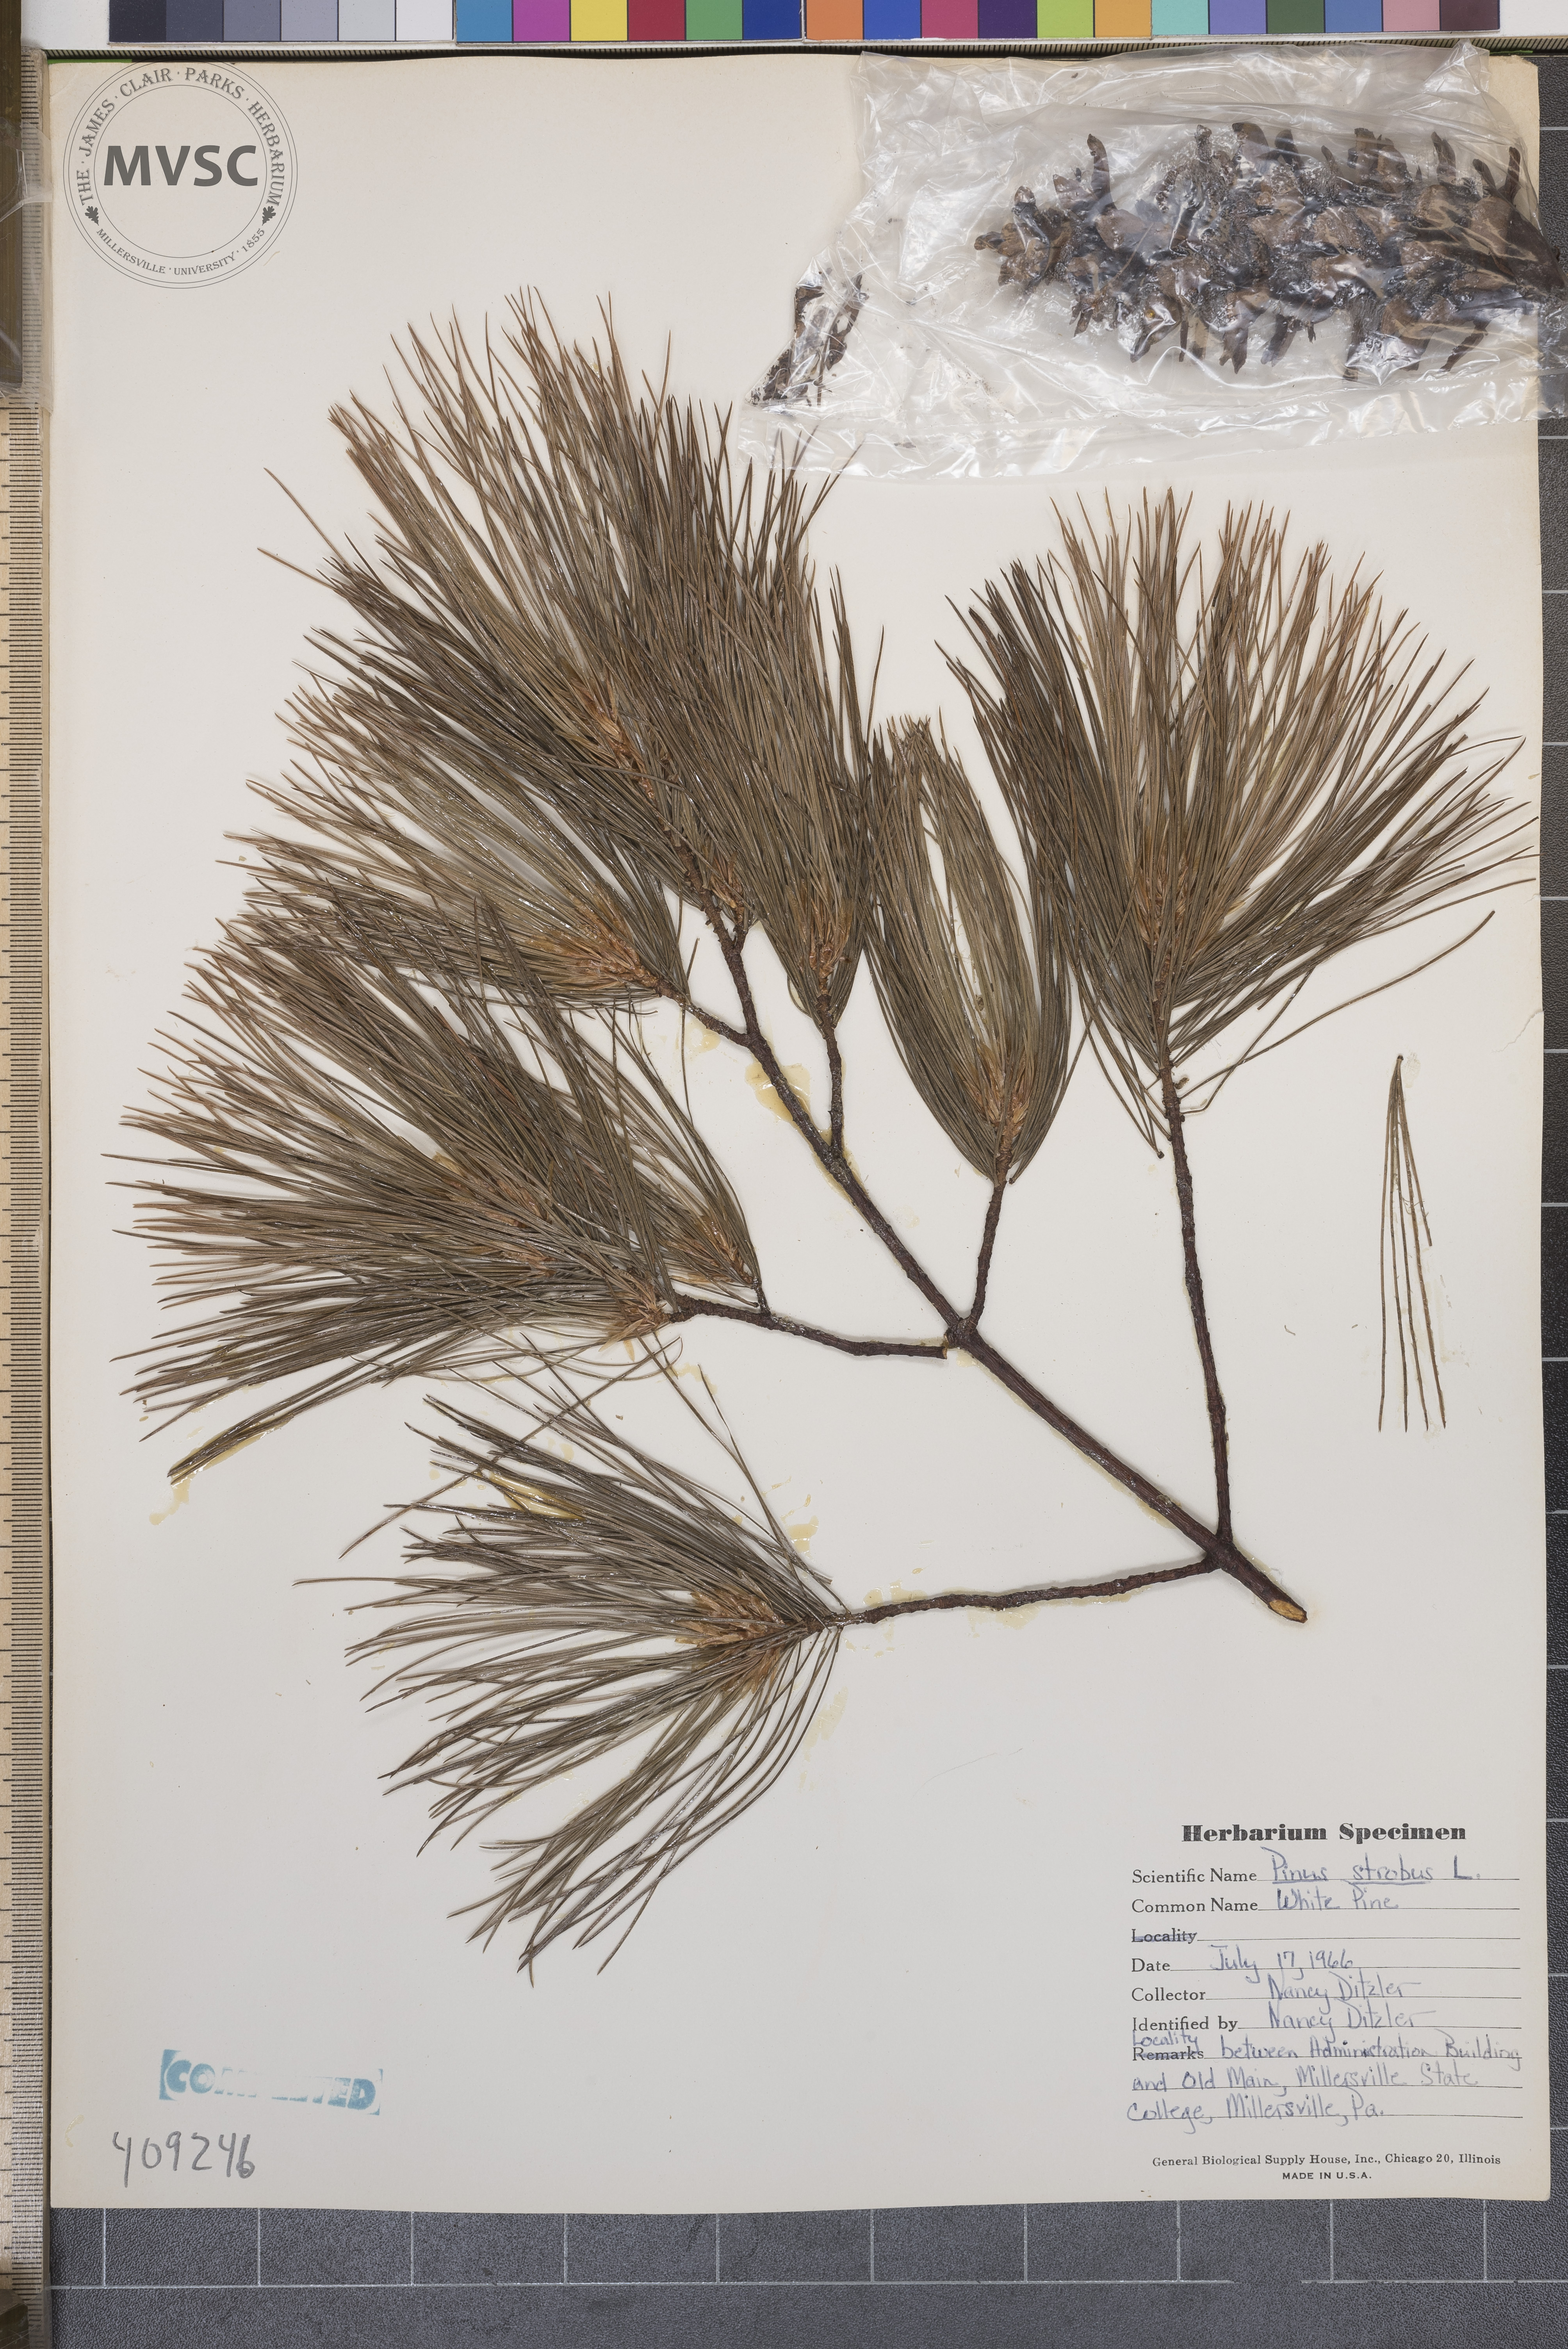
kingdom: Plantae
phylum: Tracheophyta
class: Pinopsida
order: Pinales
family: Pinaceae
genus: Pinus
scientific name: Pinus strobus
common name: Weymouth pine
